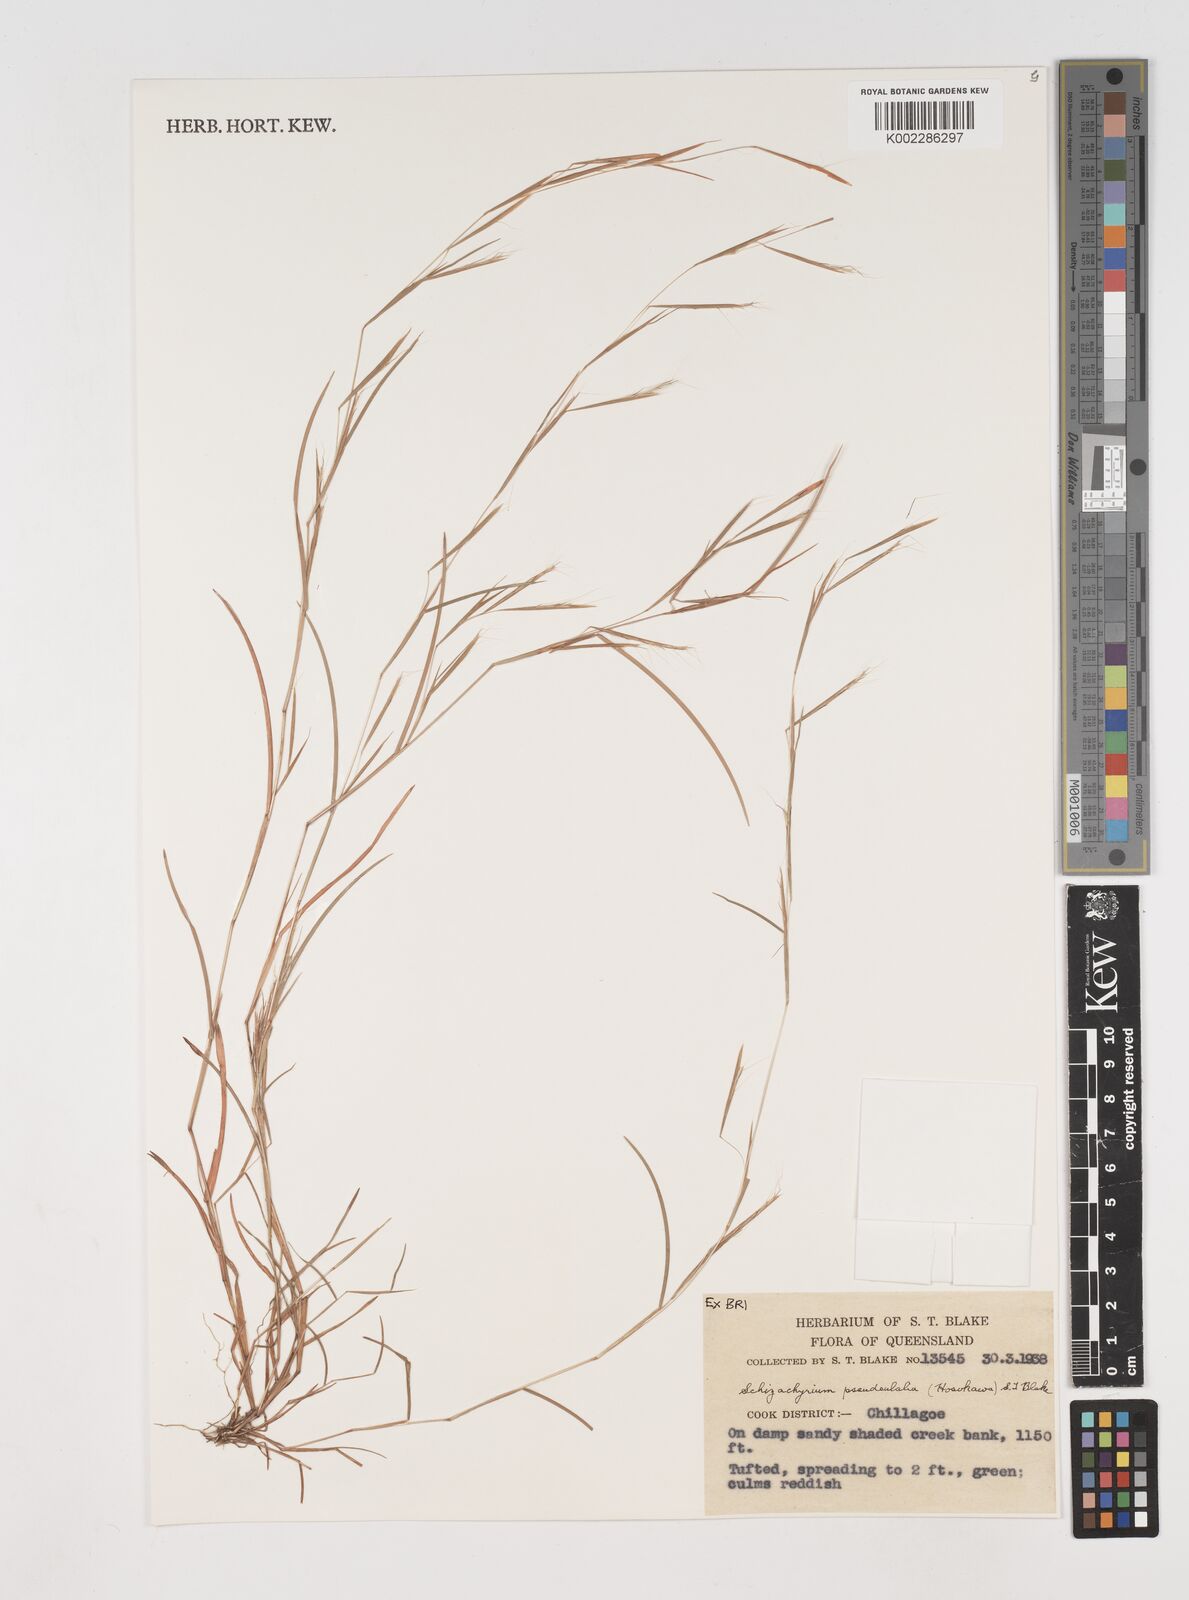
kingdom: Plantae
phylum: Tracheophyta
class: Liliopsida
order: Poales
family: Poaceae
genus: Schizachyrium
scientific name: Schizachyrium pseudeulalia
